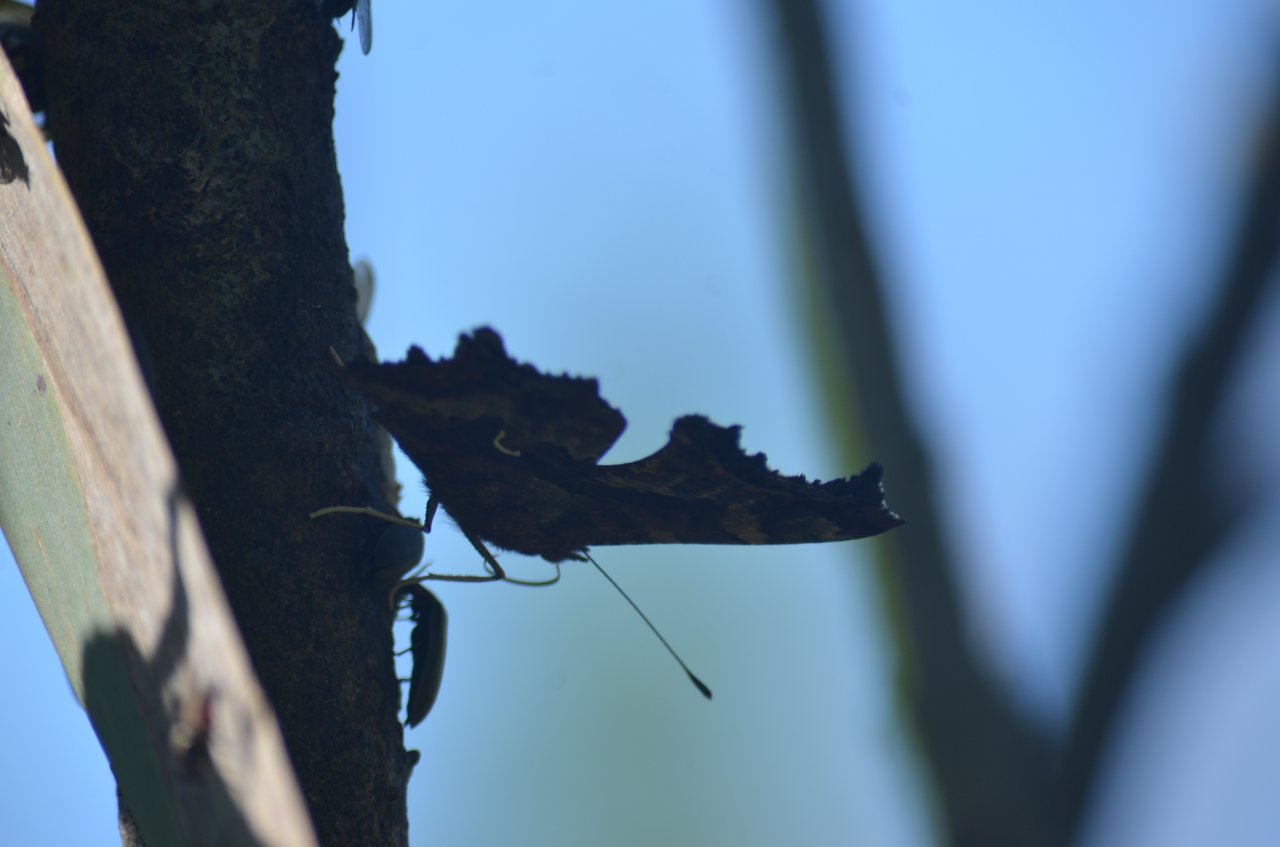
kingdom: Animalia
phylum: Arthropoda
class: Insecta
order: Lepidoptera
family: Nymphalidae
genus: Polygonia
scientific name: Polygonia comma
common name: Eastern Comma
